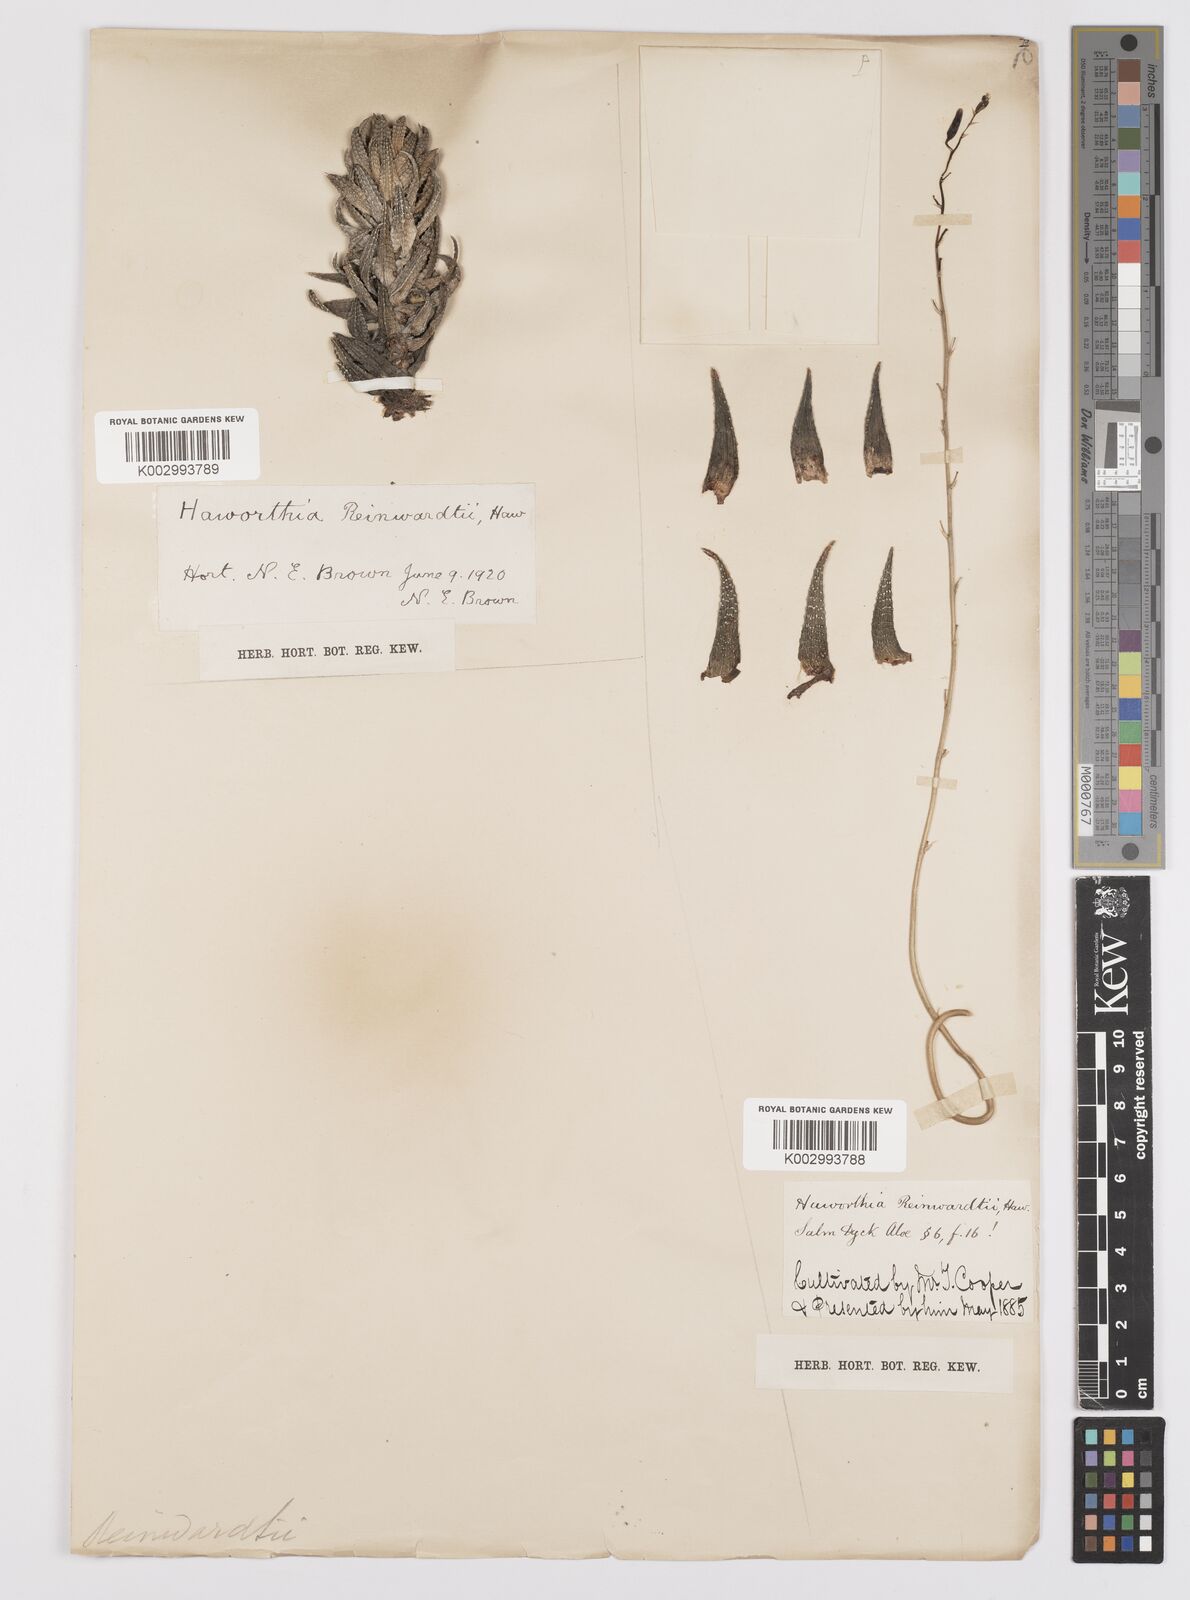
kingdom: Plantae
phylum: Tracheophyta
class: Liliopsida
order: Asparagales
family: Asphodelaceae
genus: Haworthiopsis
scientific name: Haworthiopsis reinwardtii
